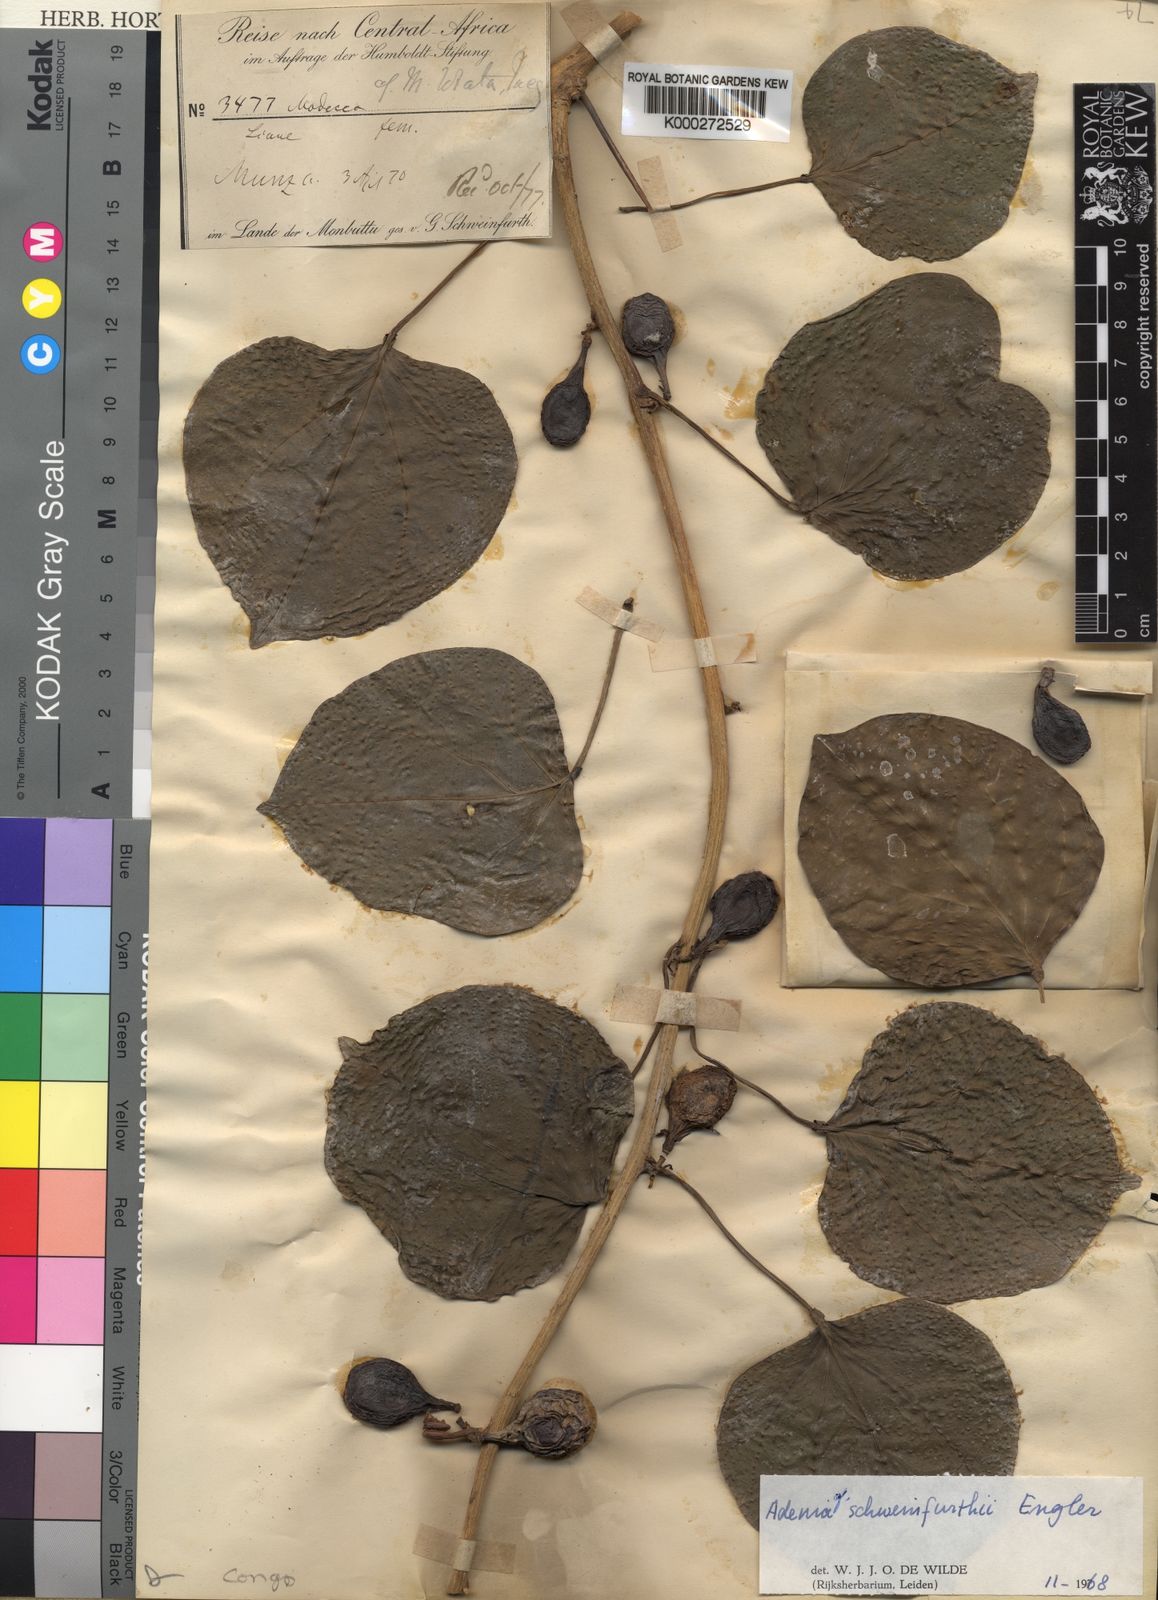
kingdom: Plantae
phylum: Tracheophyta
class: Magnoliopsida
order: Malpighiales
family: Passifloraceae
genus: Adenia
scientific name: Adenia lobata
